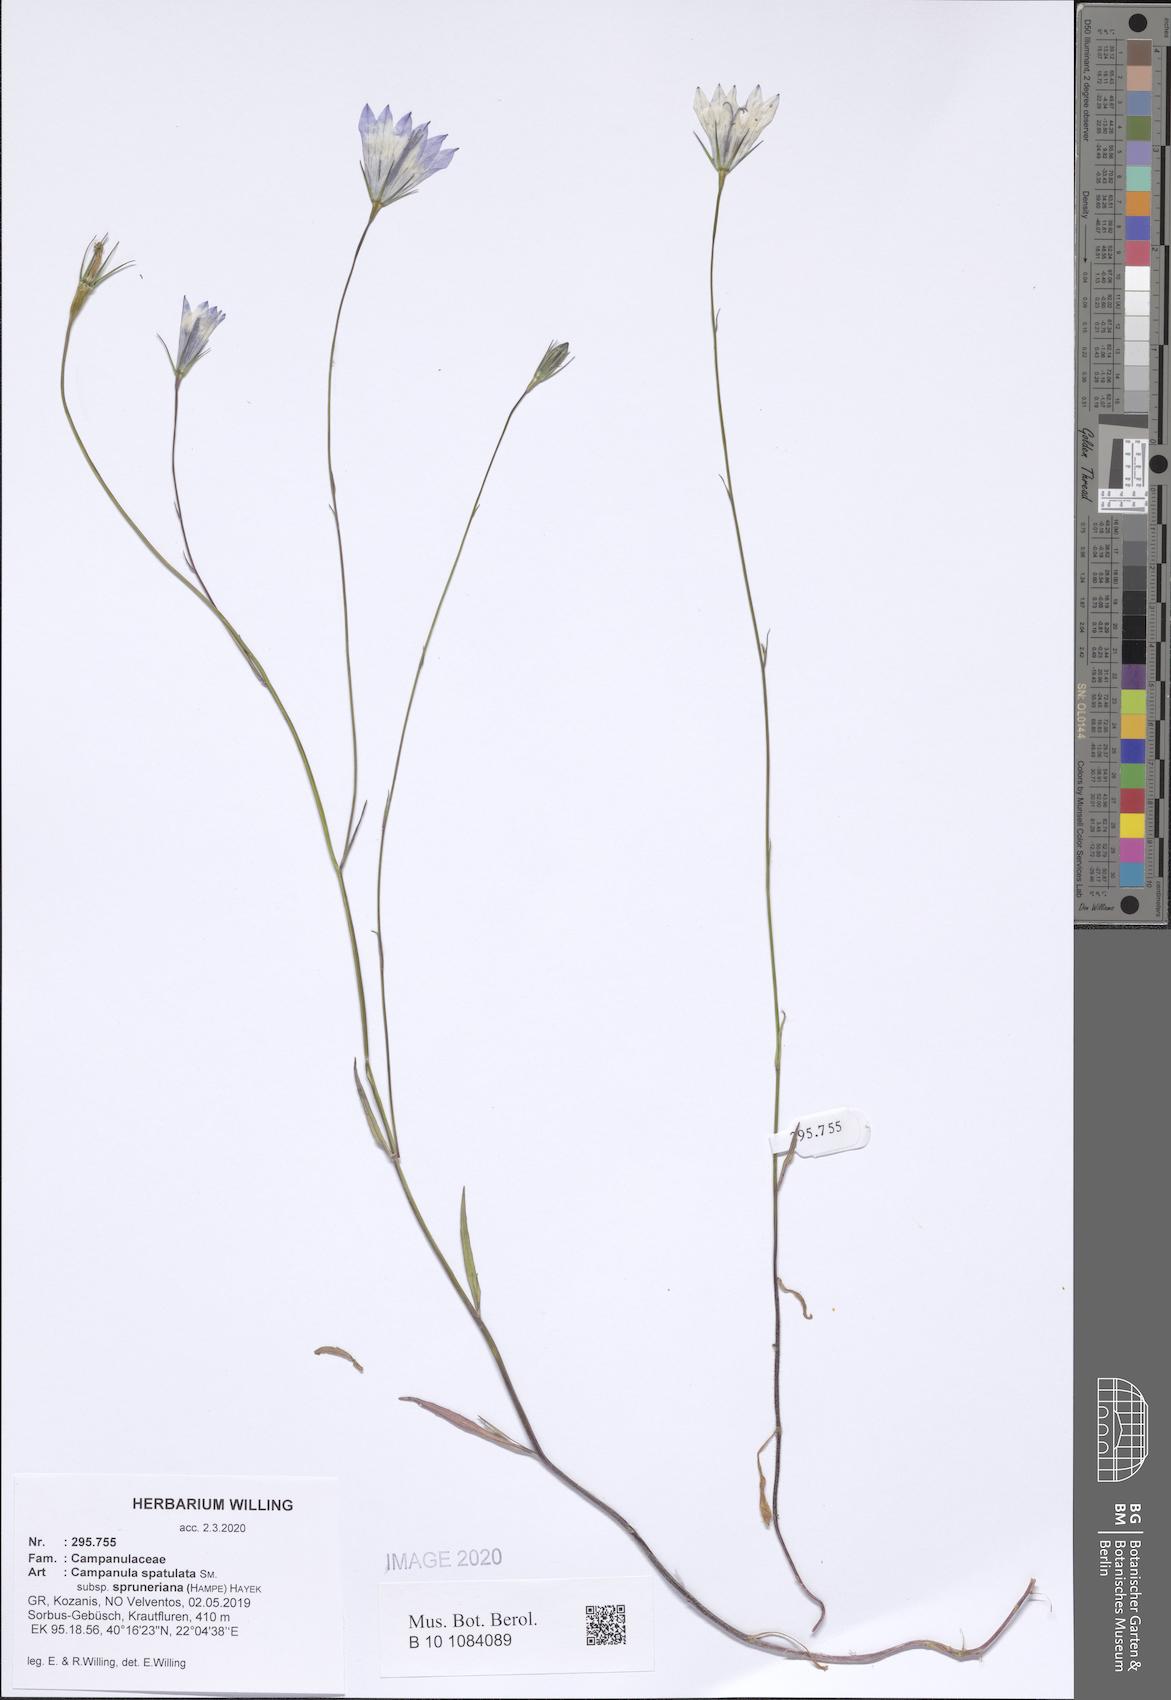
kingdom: Plantae
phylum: Tracheophyta
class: Magnoliopsida
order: Asterales
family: Campanulaceae
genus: Campanula
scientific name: Campanula spatulata
